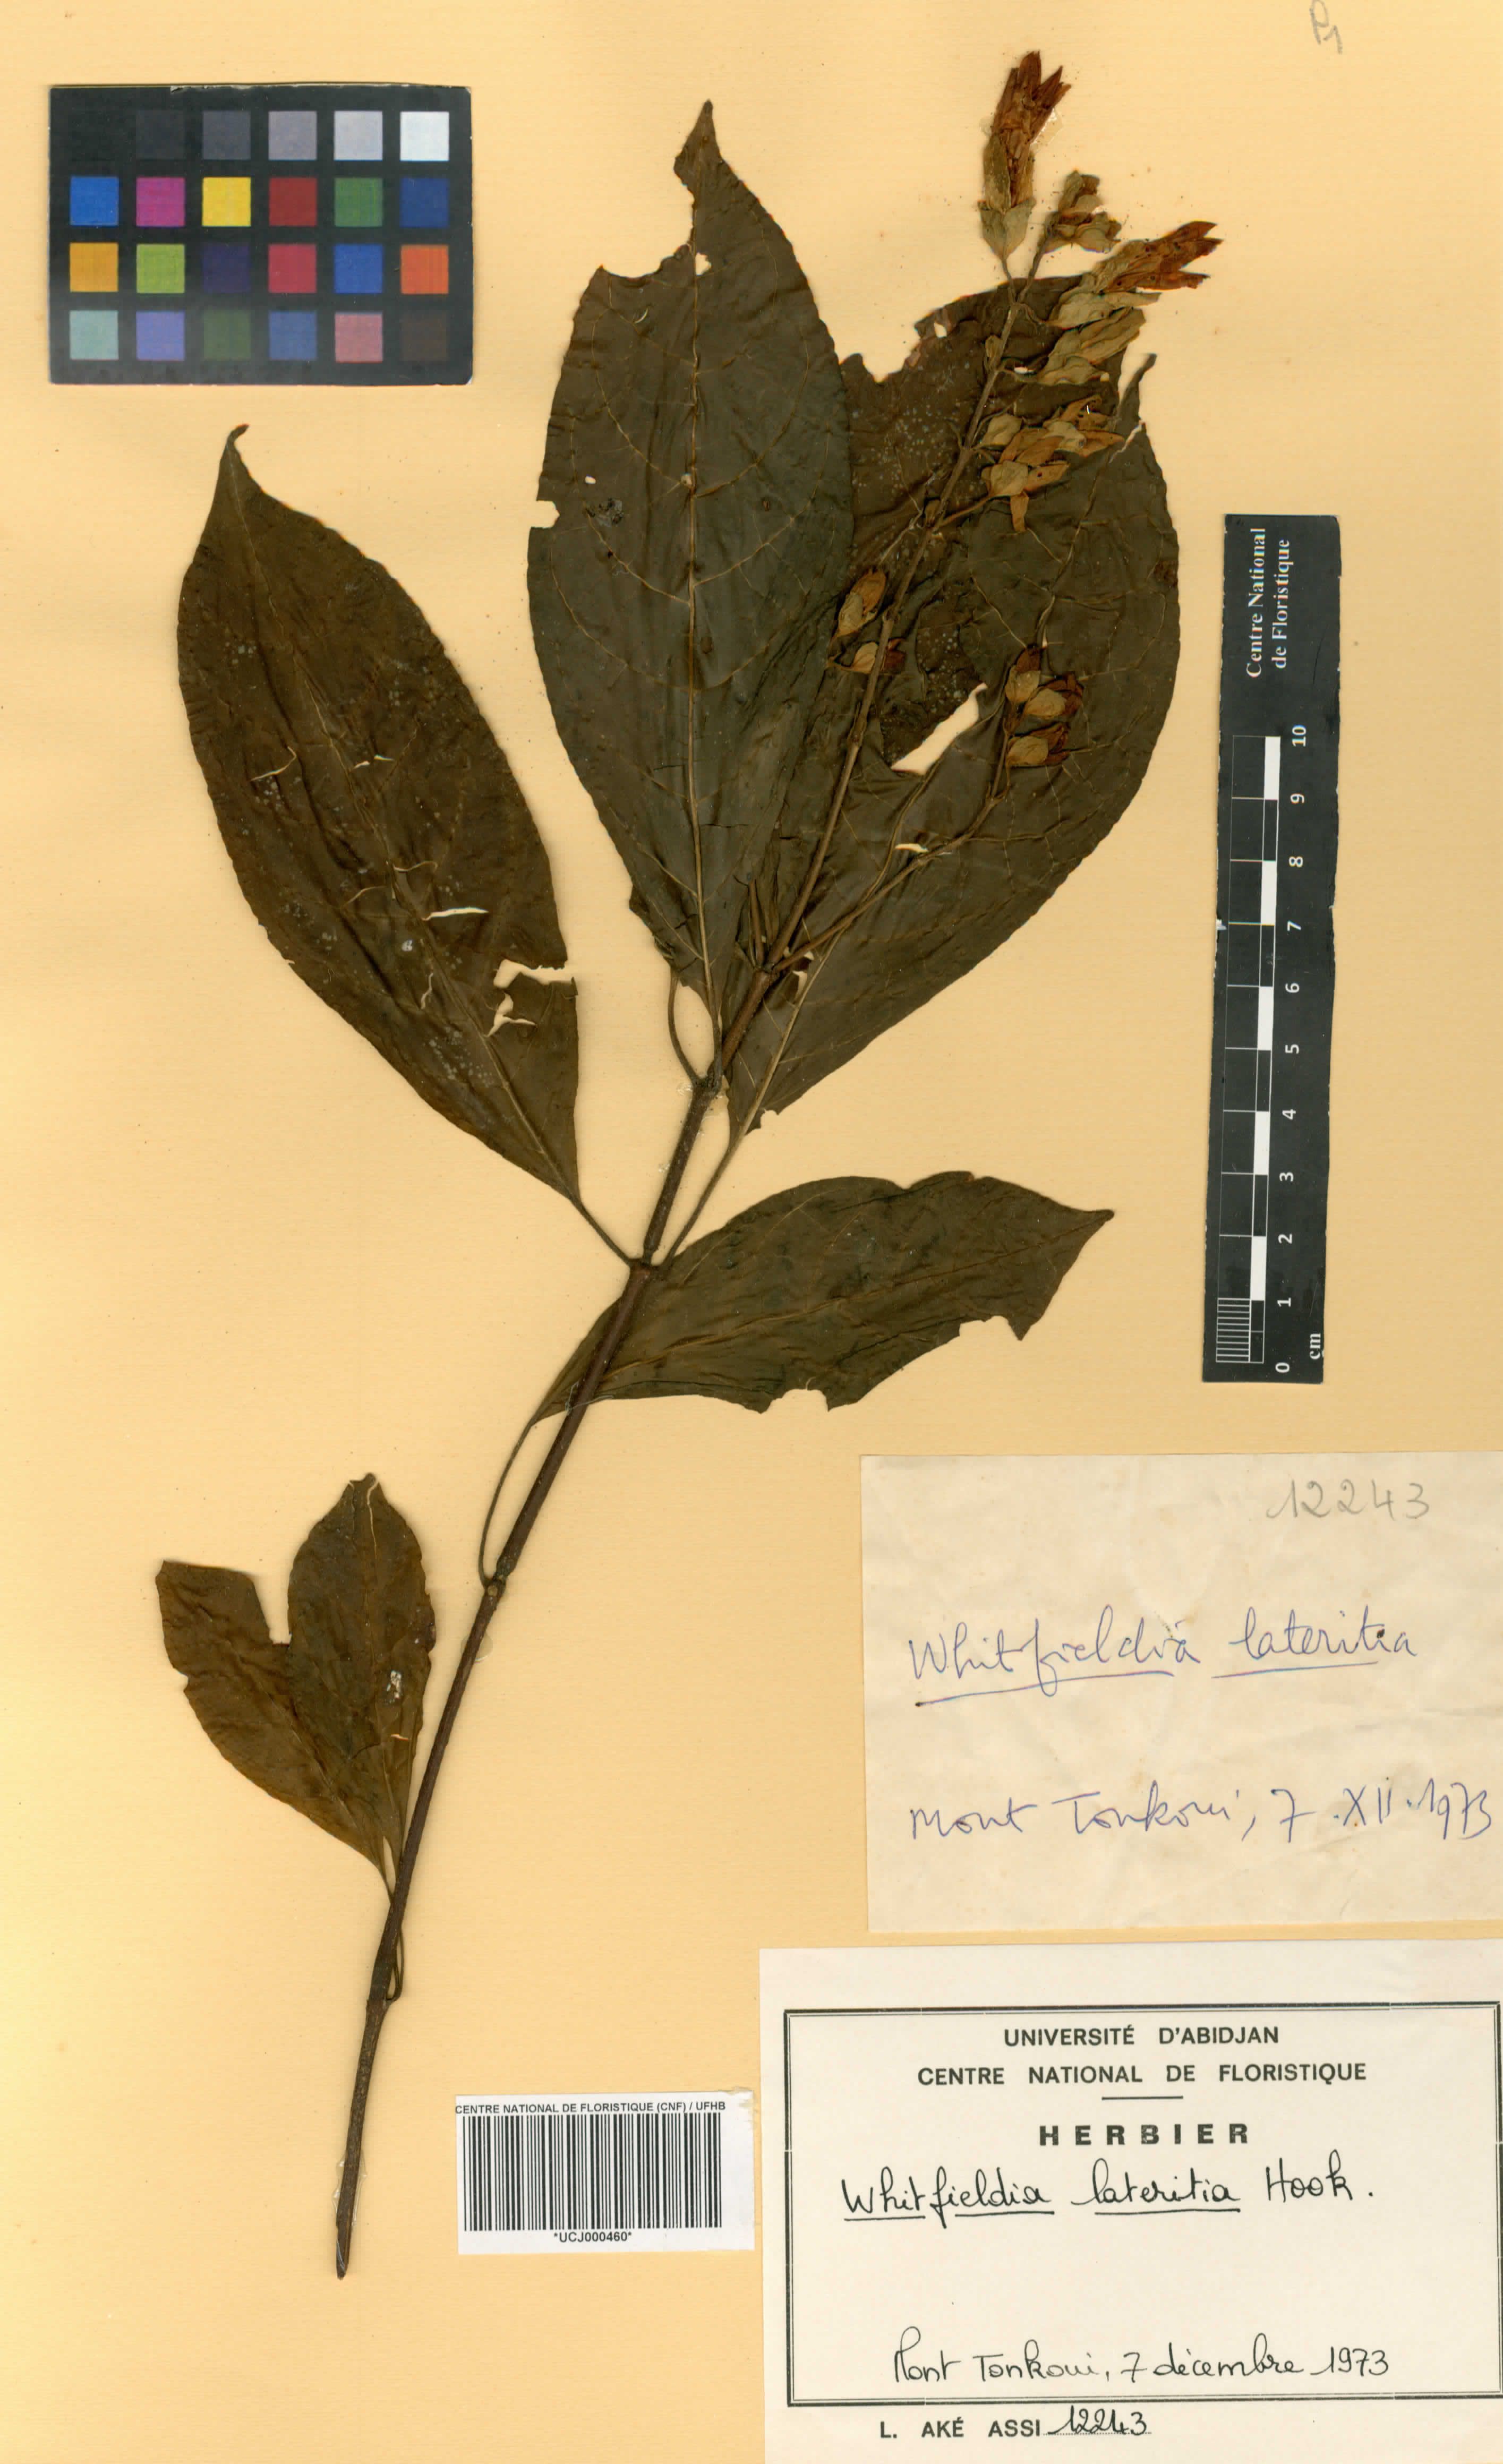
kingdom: Plantae
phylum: Tracheophyta
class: Magnoliopsida
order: Lamiales
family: Acanthaceae
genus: Whitfieldia
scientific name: Whitfieldia lateritia
